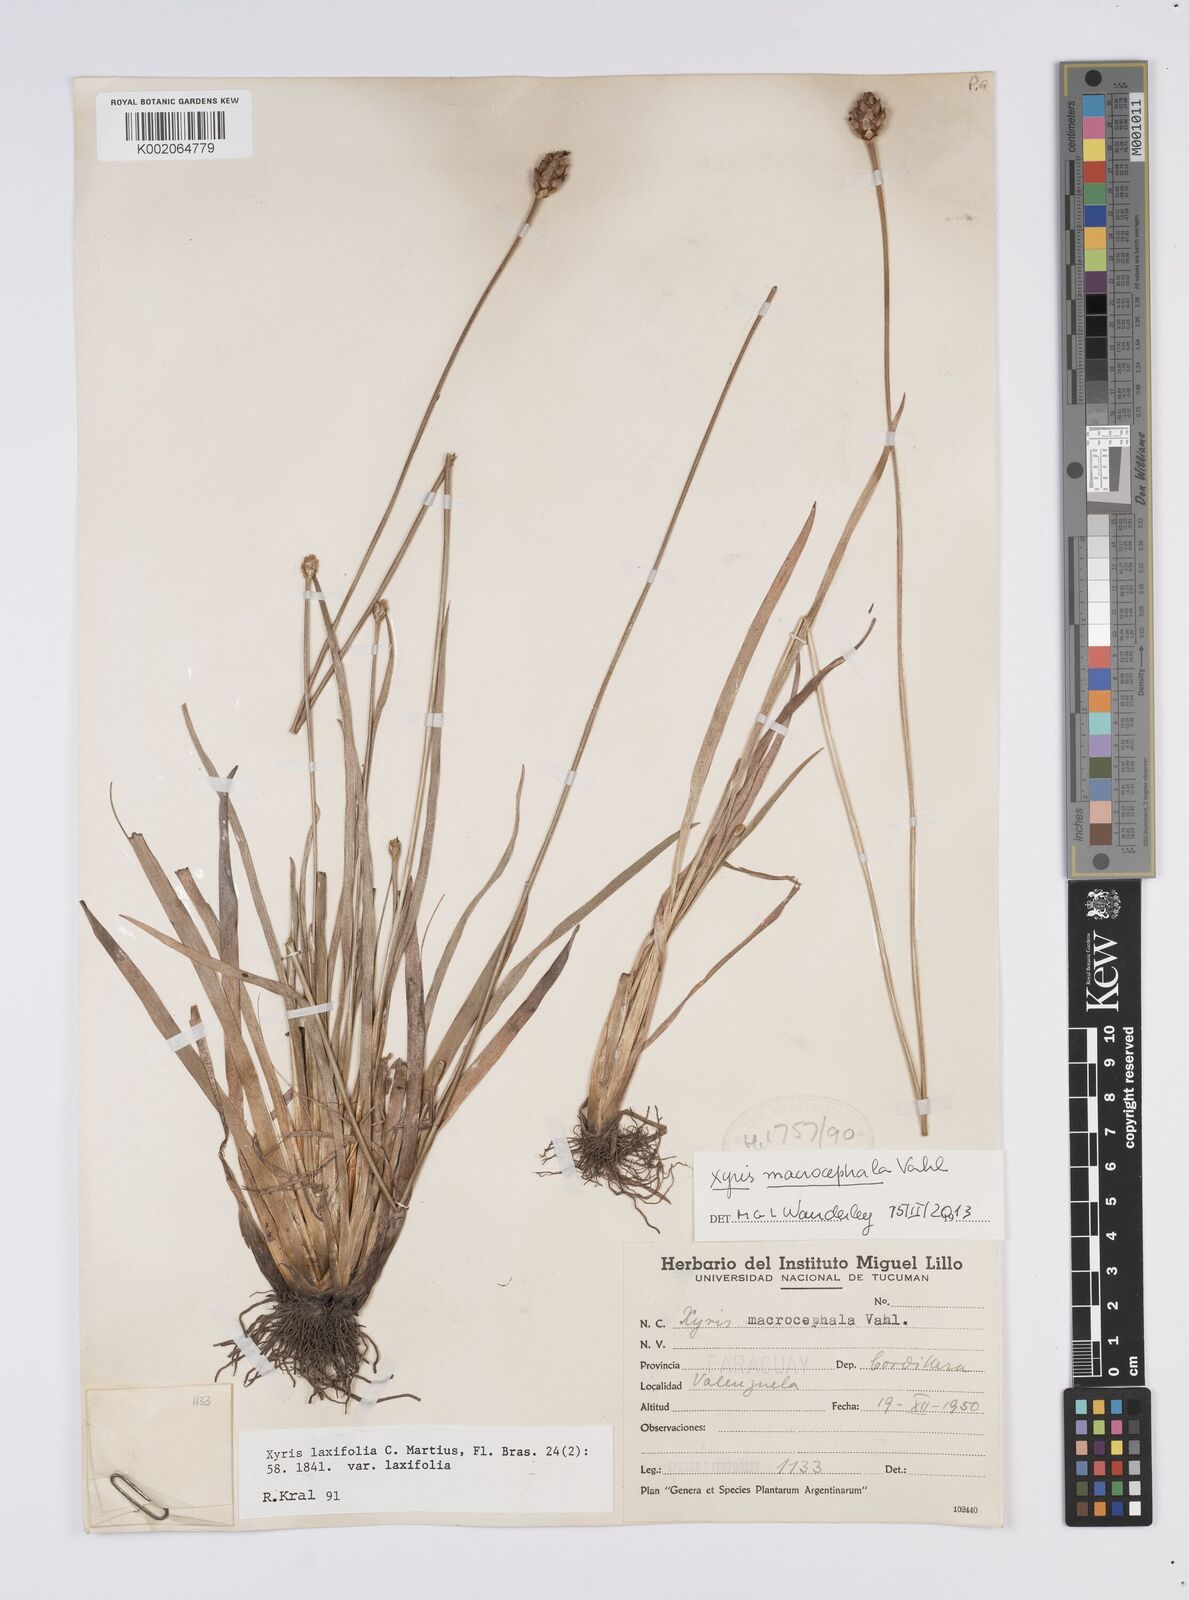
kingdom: Plantae
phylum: Tracheophyta
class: Liliopsida
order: Poales
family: Xyridaceae
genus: Xyris
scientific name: Xyris laxifolia
